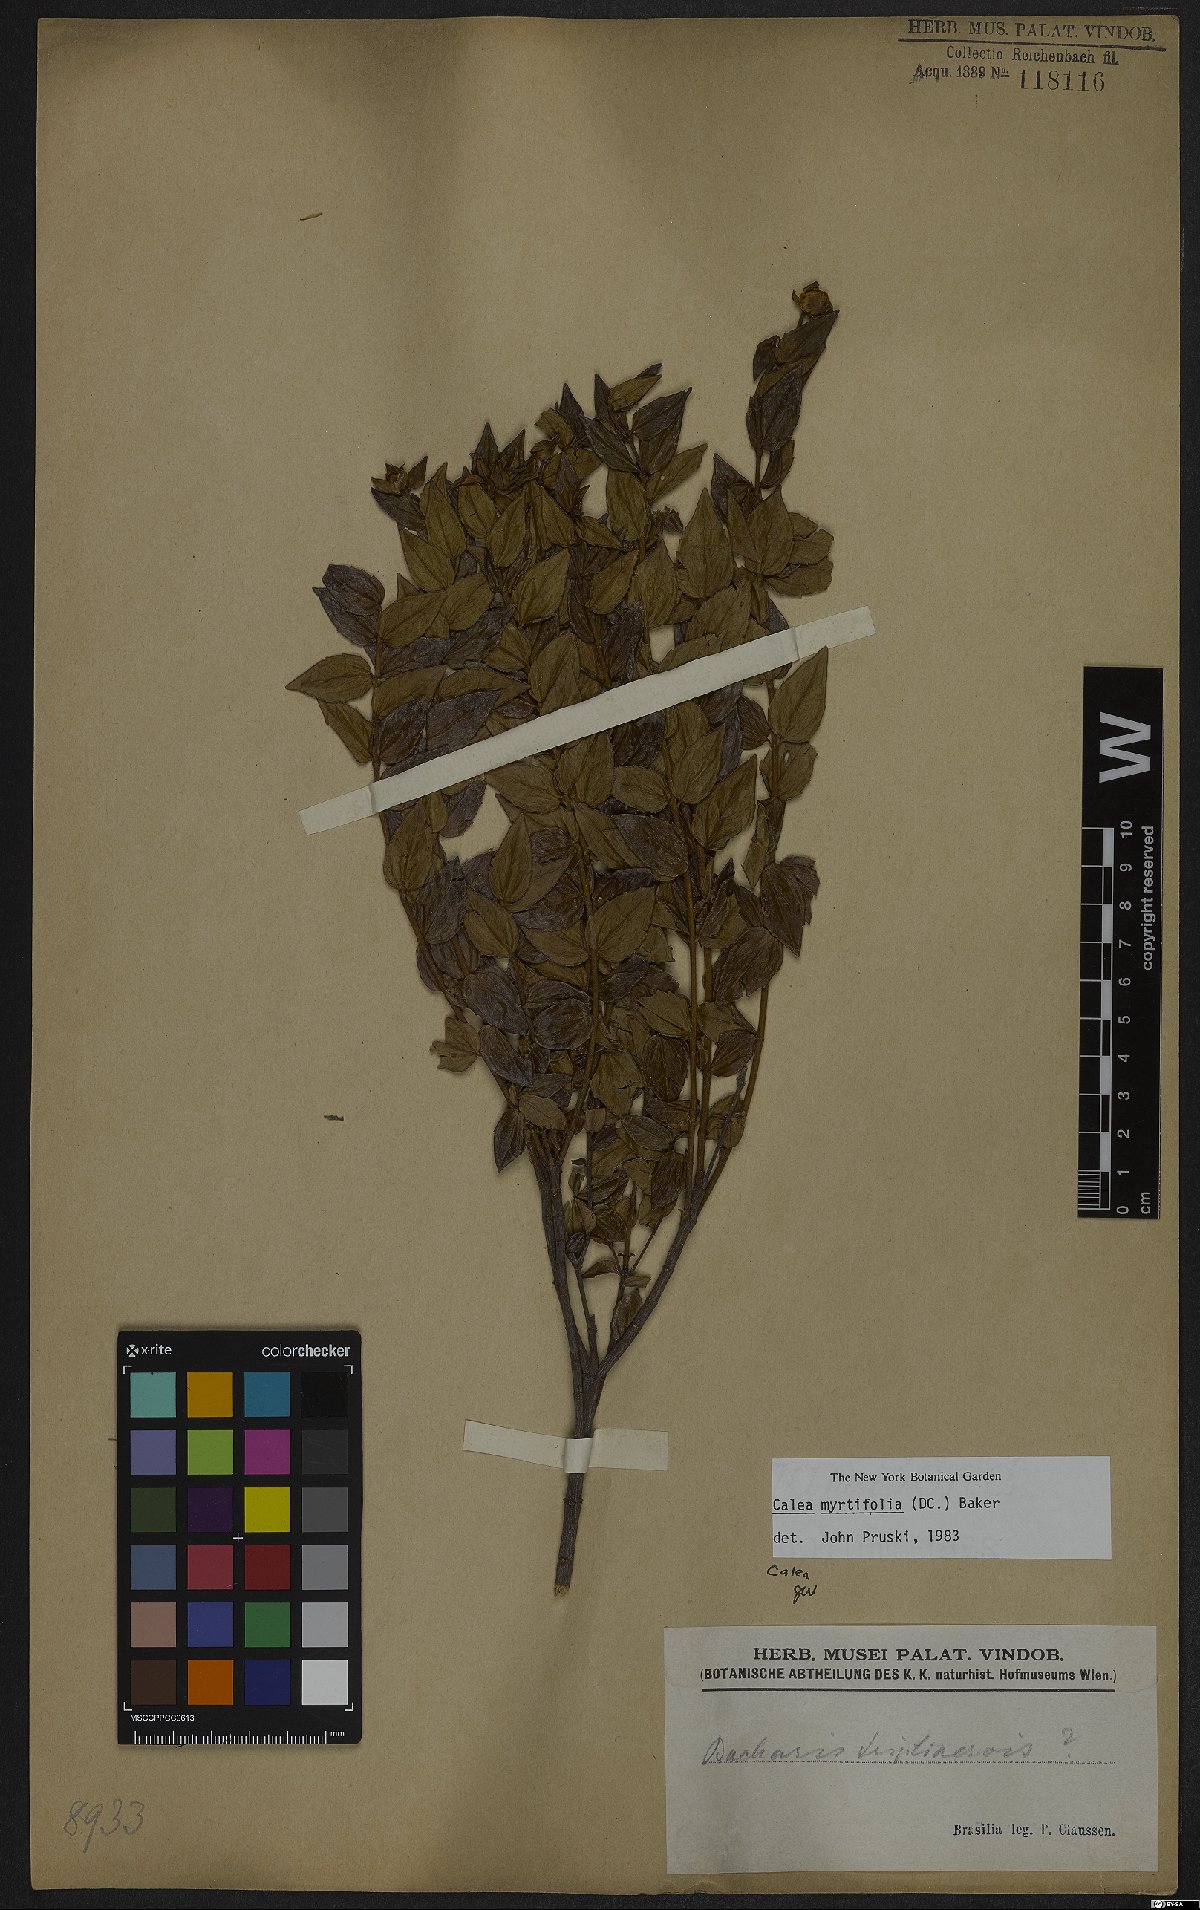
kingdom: Plantae
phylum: Tracheophyta
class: Magnoliopsida
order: Asterales
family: Asteraceae
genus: Calea
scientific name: Calea myrtifolia
